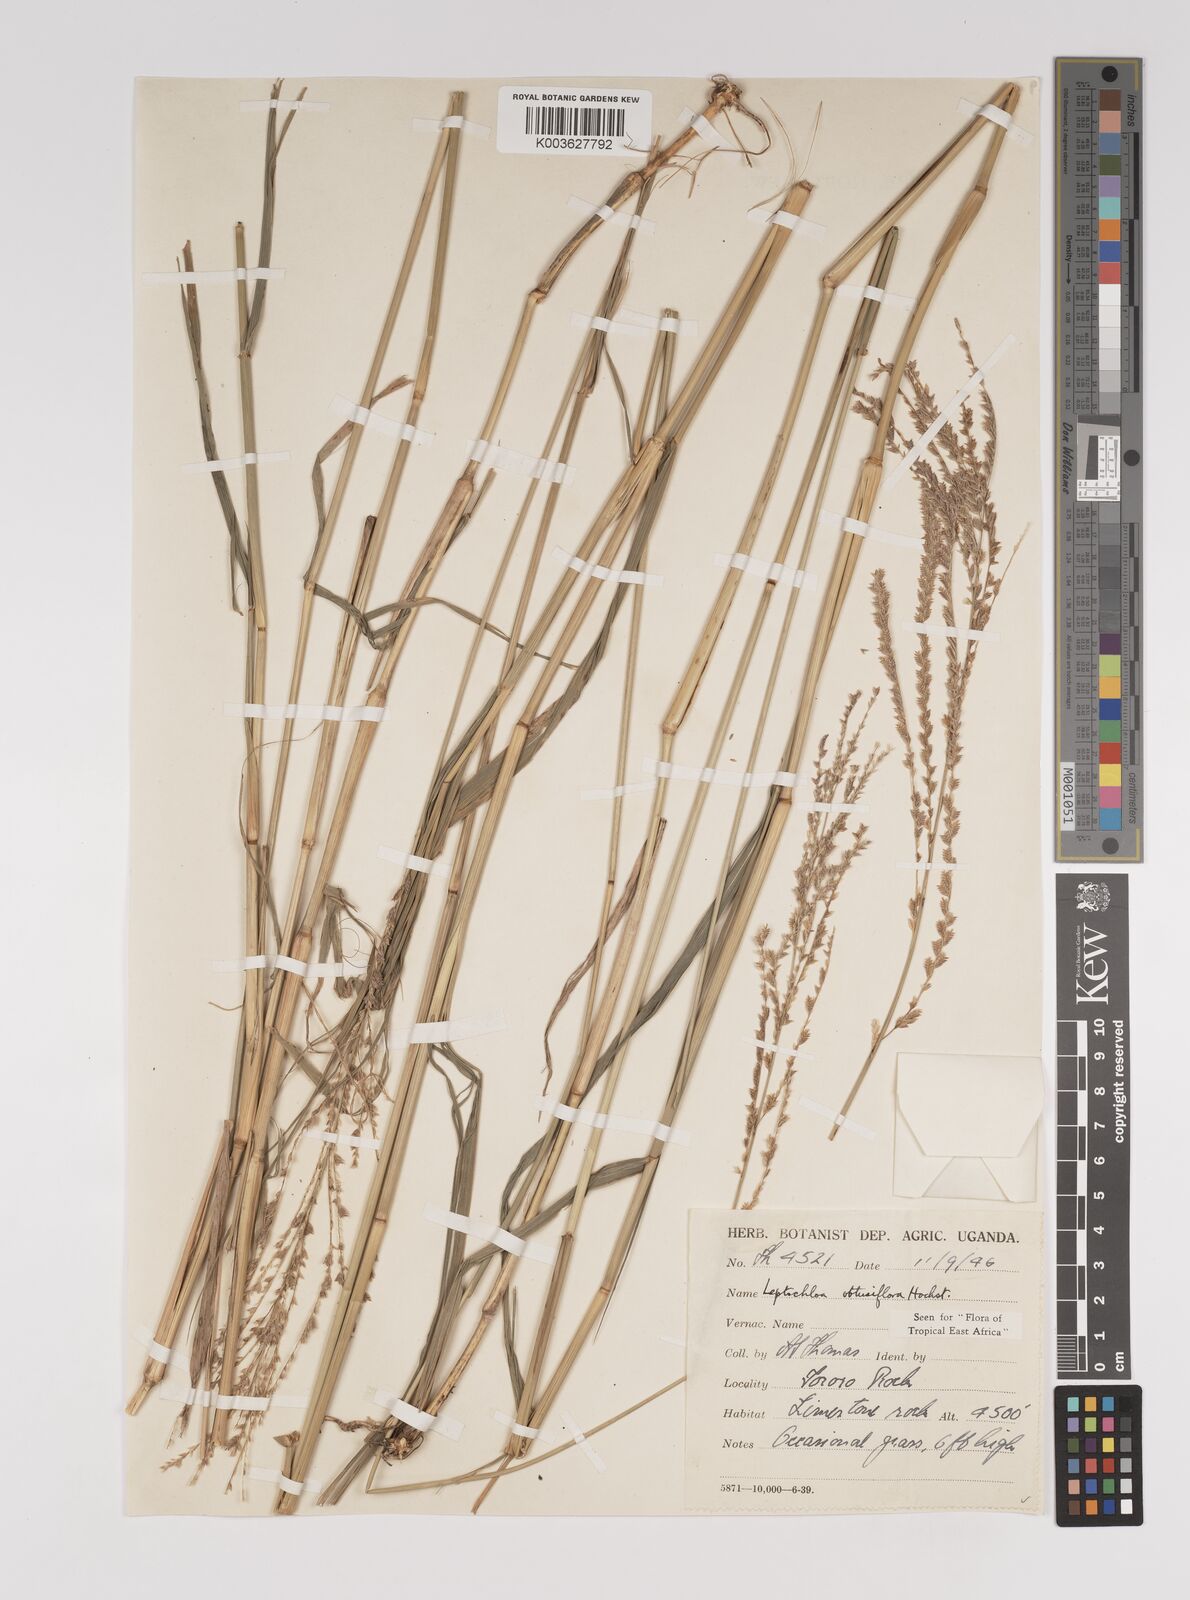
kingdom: Plantae
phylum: Tracheophyta
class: Liliopsida
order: Poales
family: Poaceae
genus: Disakisperma
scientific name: Disakisperma obtusiflorum
